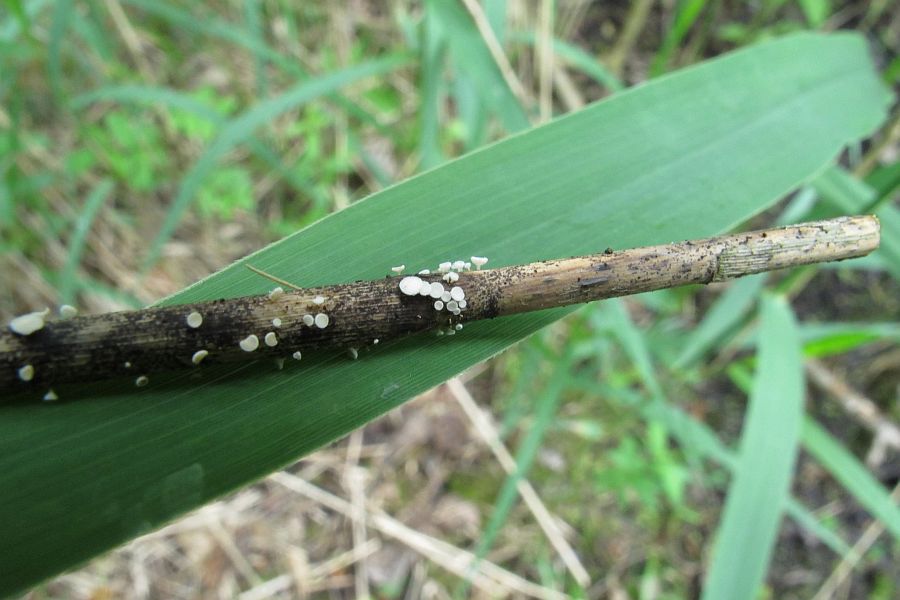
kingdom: Fungi
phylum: Ascomycota
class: Leotiomycetes
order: Helotiales
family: Lachnaceae
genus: Lachnum
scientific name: Lachnum controversum
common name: tagrør-frynseskive
